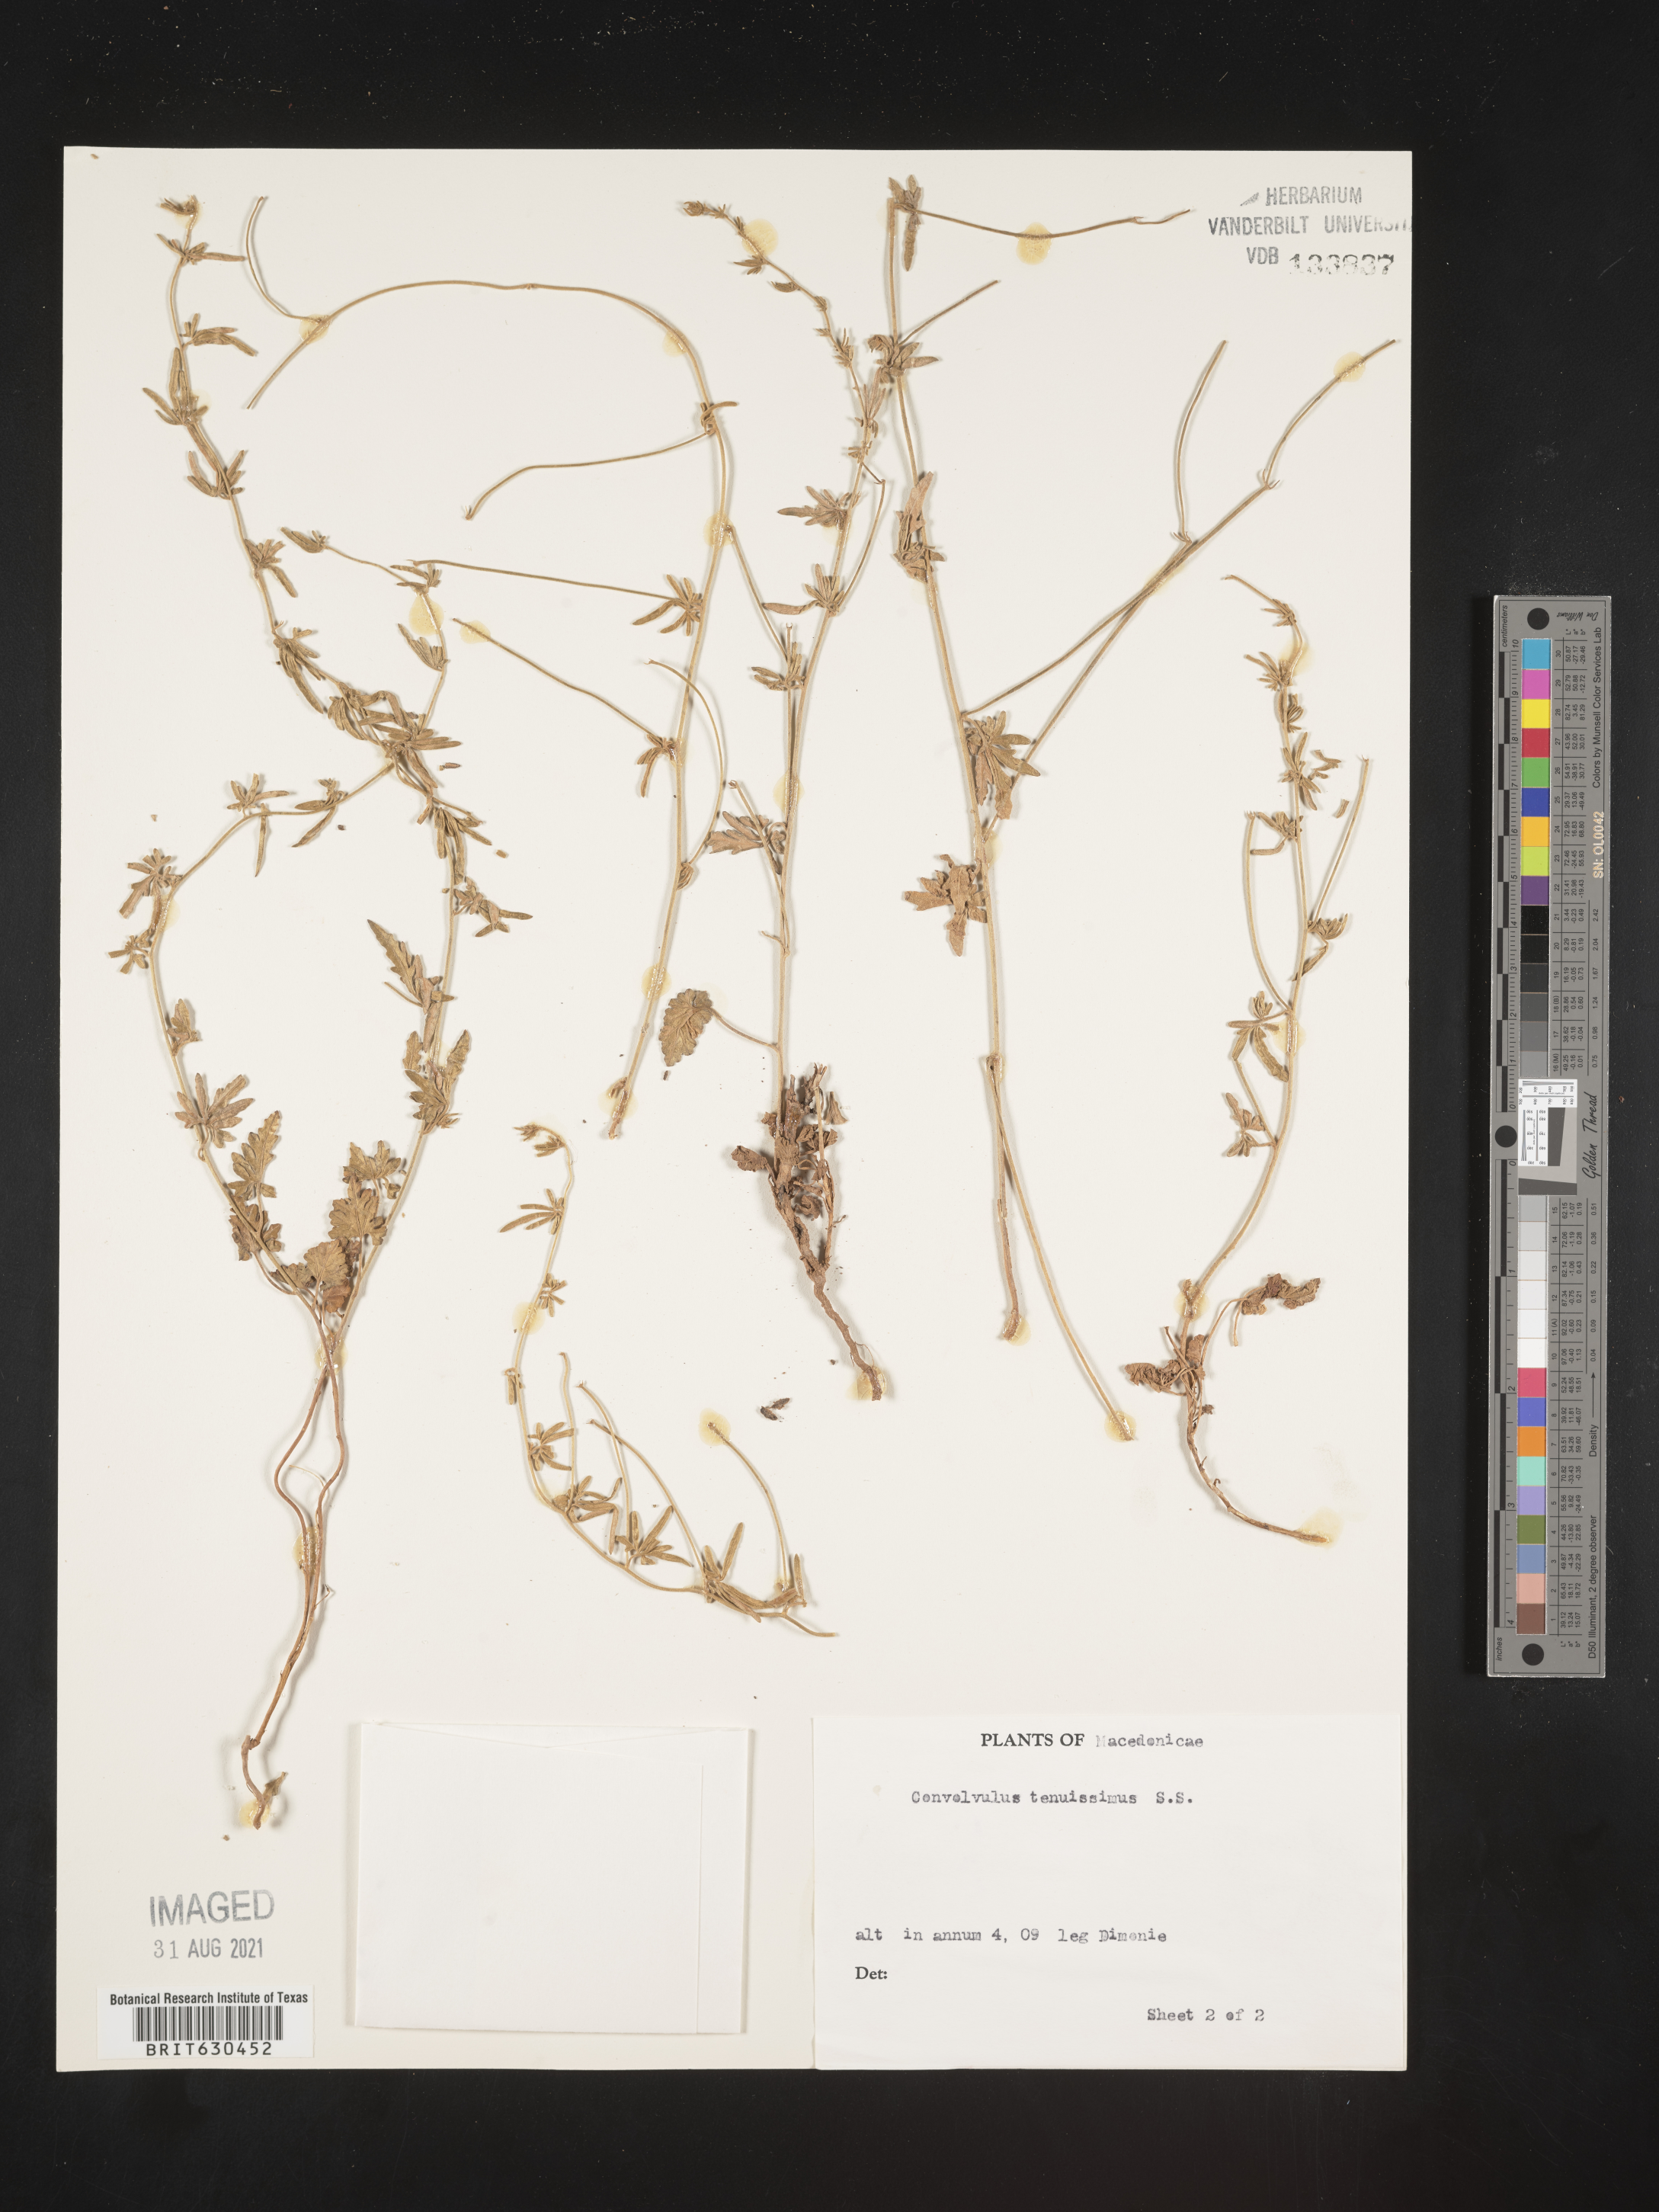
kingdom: Plantae
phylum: Tracheophyta
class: Magnoliopsida
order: Solanales
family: Convolvulaceae
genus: Convolvulus
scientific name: Convolvulus elegantissimus
